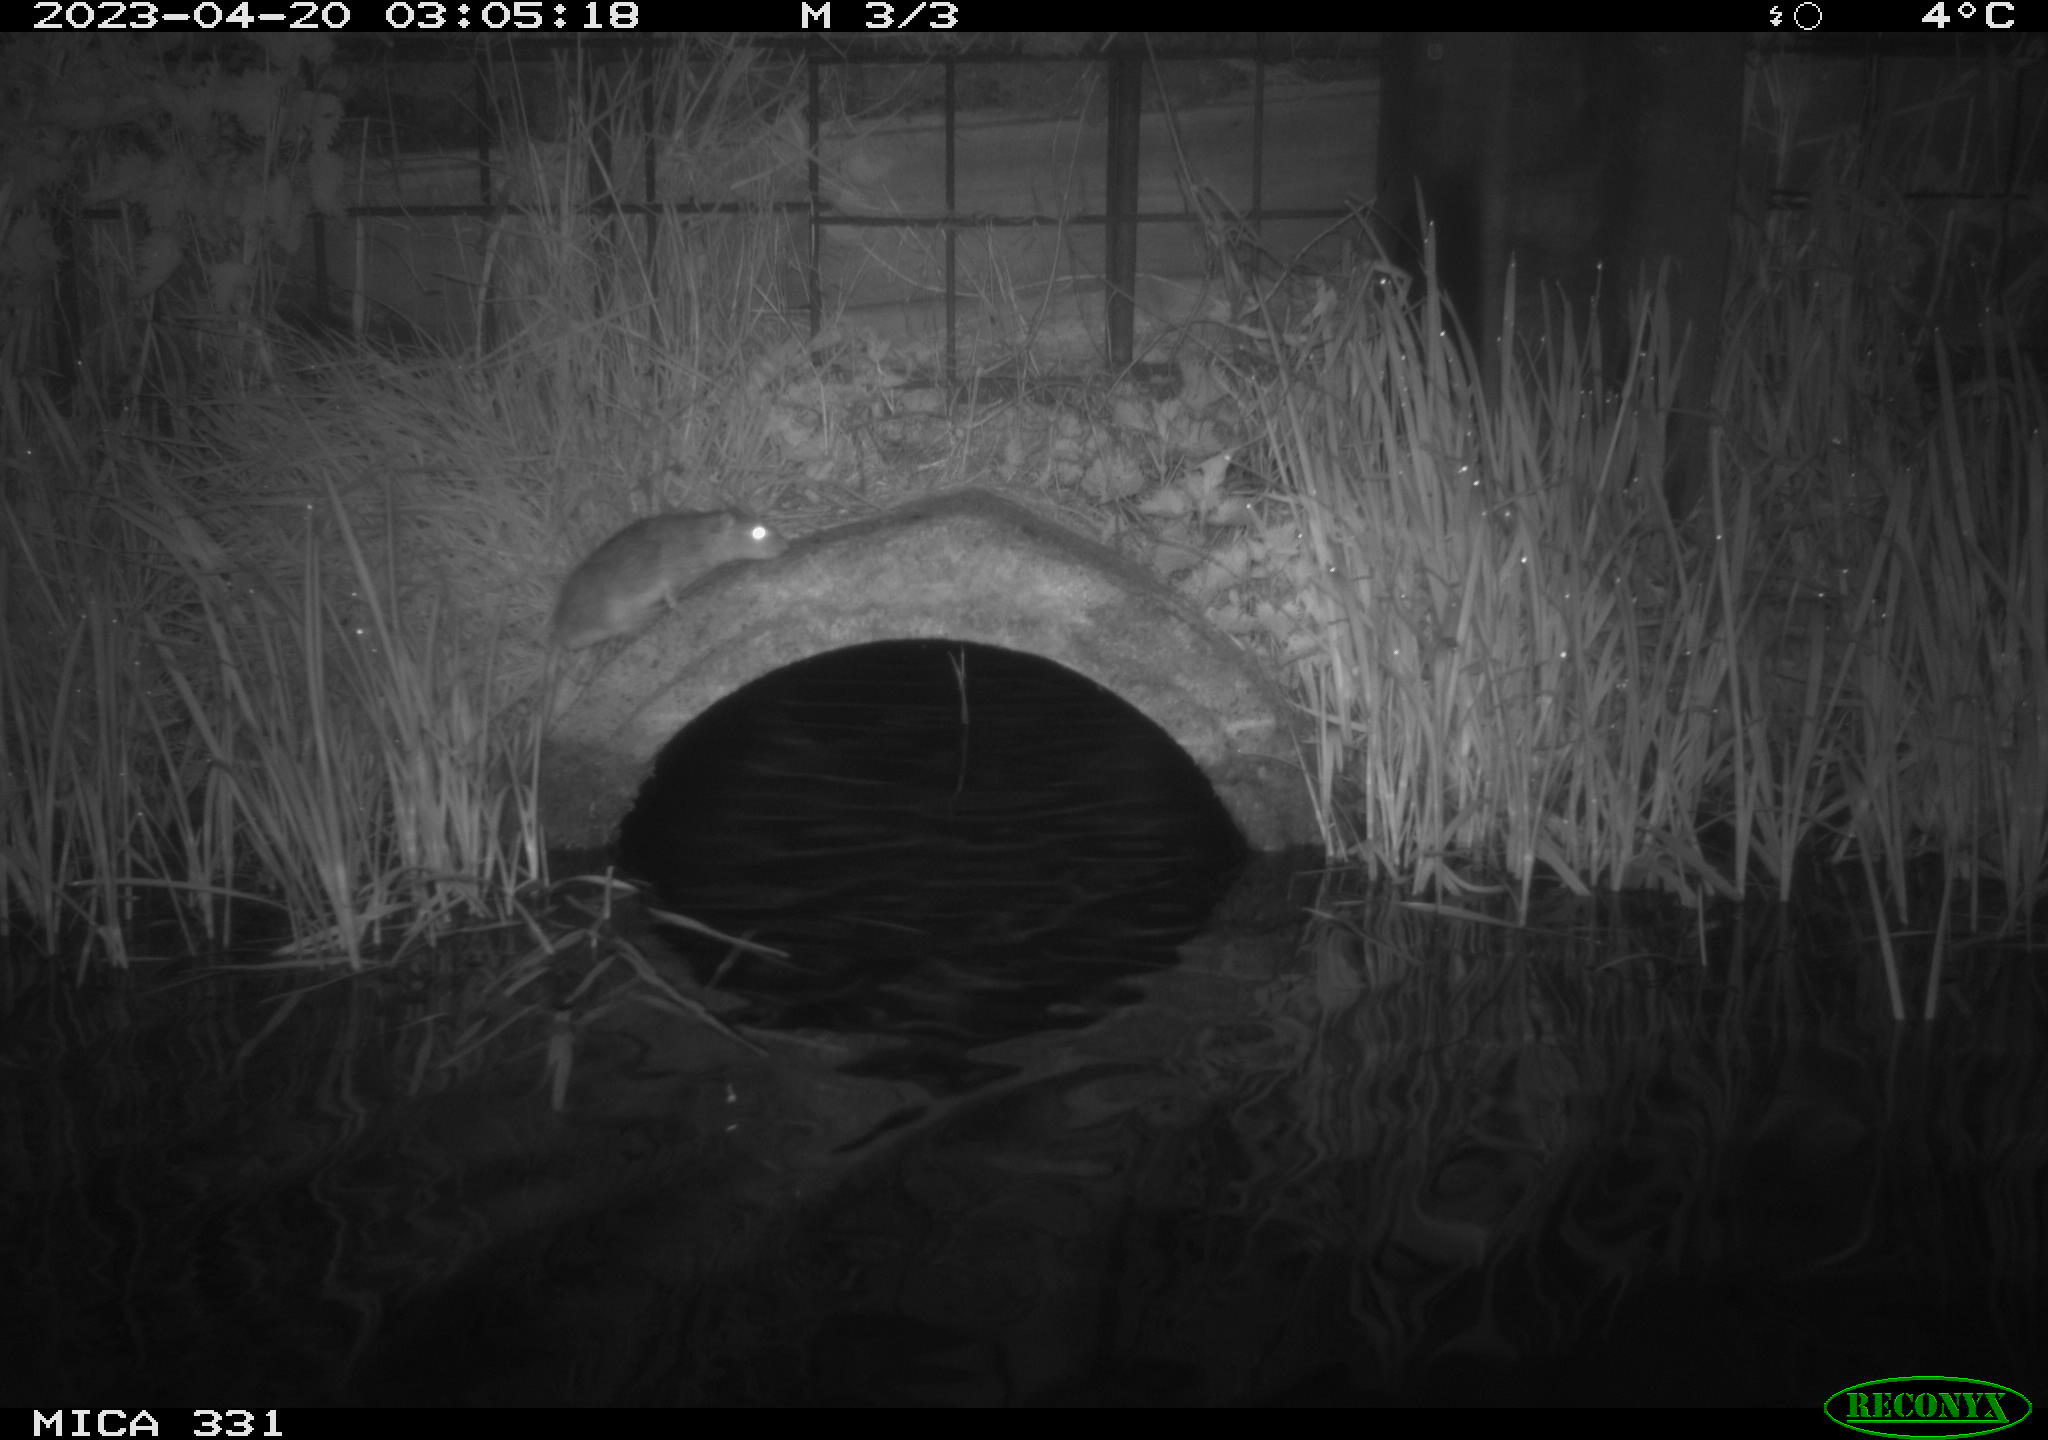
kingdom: Animalia
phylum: Chordata
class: Mammalia
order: Rodentia
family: Muridae
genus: Rattus
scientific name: Rattus norvegicus
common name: Brown rat
